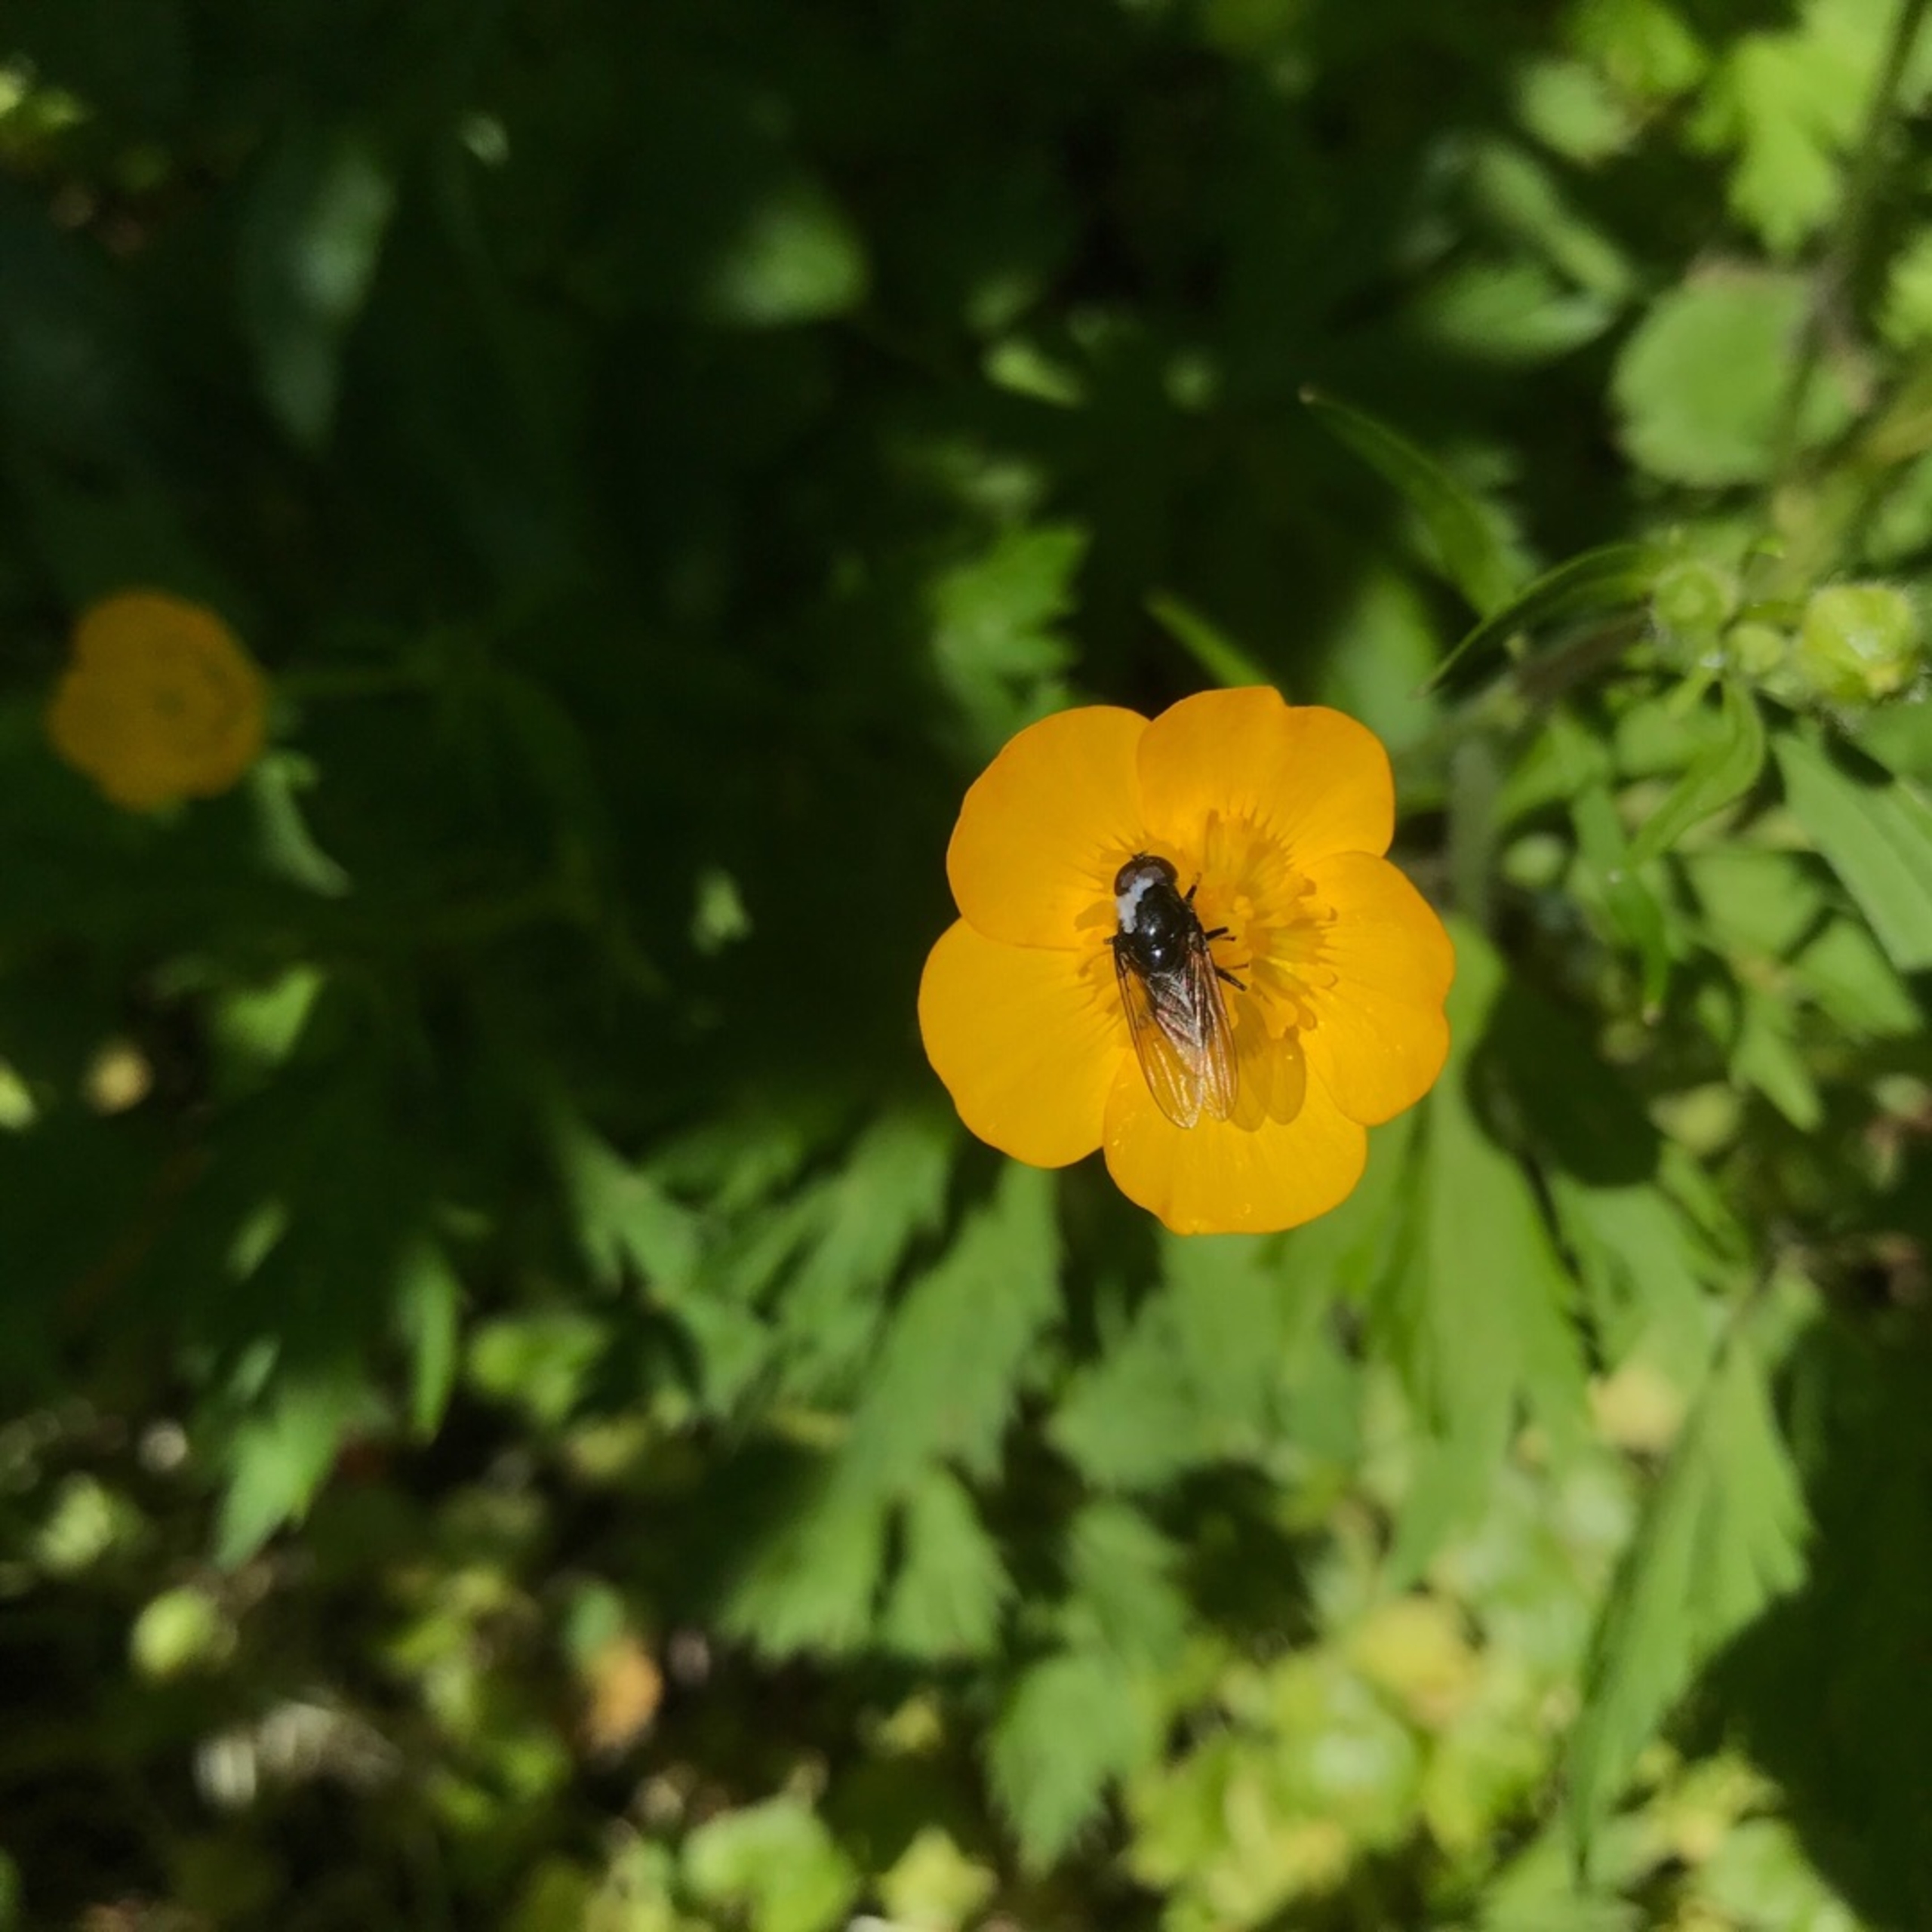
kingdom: Animalia
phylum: Arthropoda
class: Insecta
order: Diptera
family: Syrphidae
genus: Cheilosia
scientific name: Cheilosia
